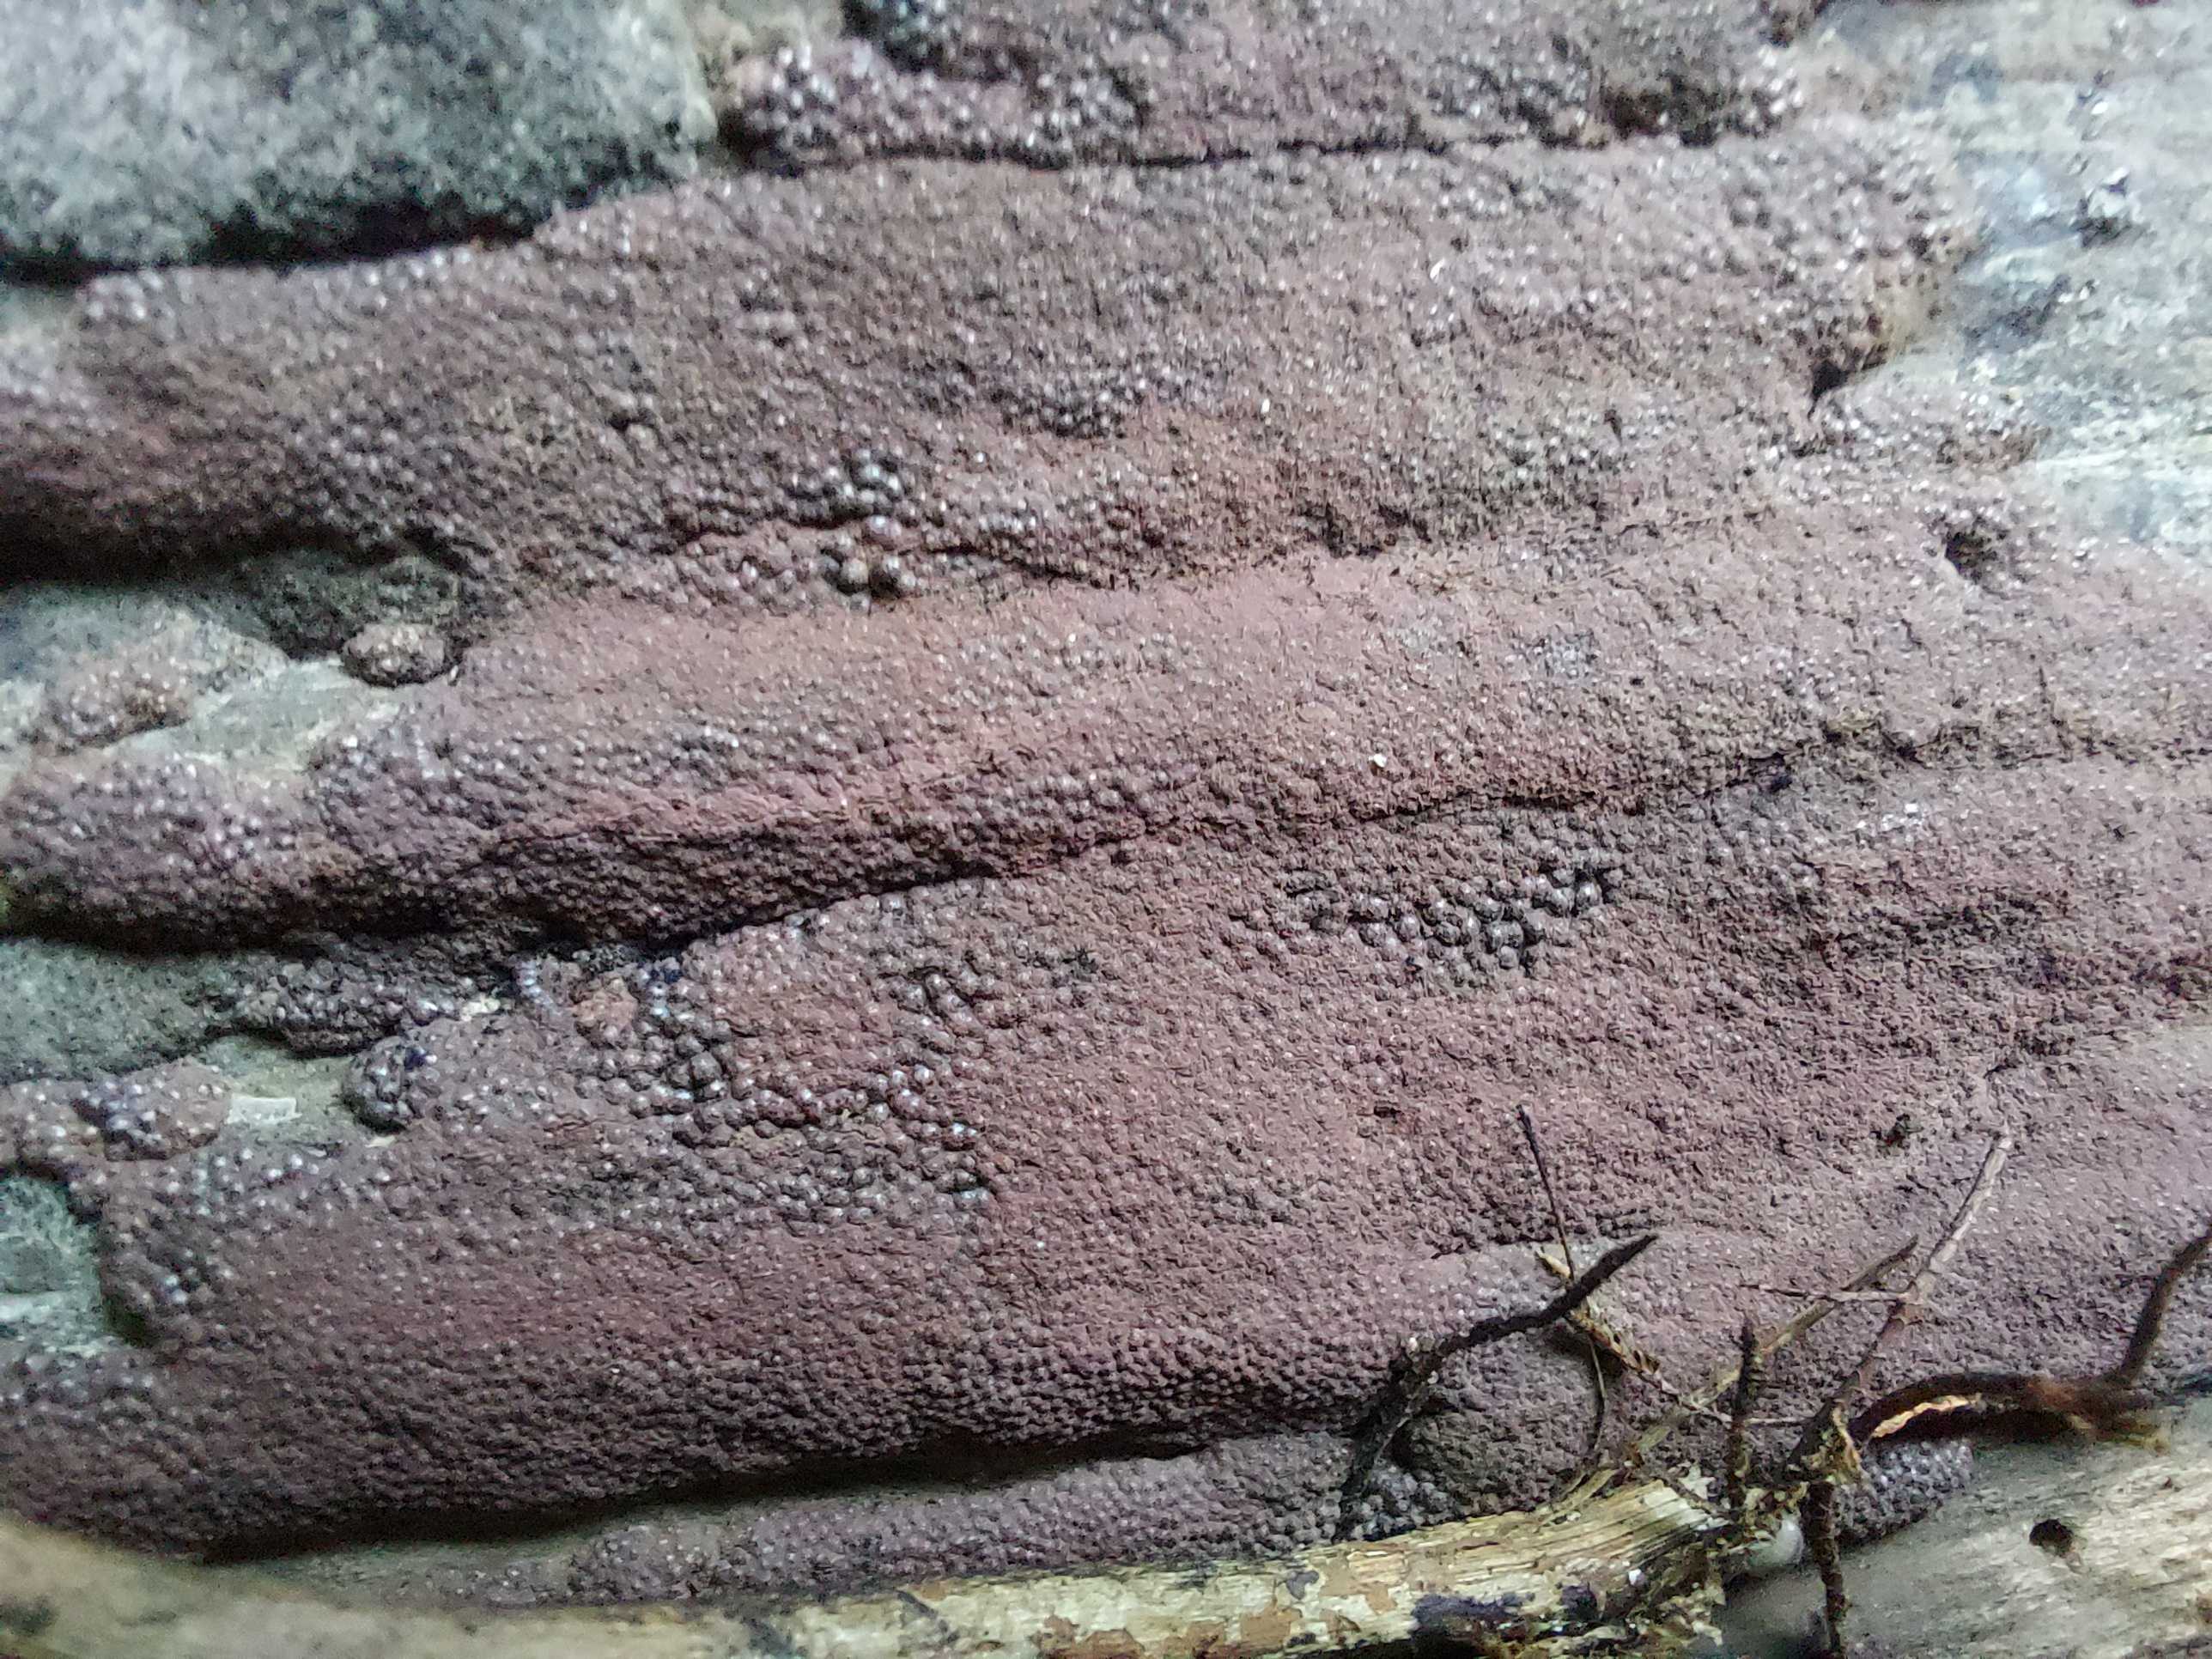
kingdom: Fungi
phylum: Ascomycota
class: Sordariomycetes
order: Xylariales
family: Hypoxylaceae
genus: Hypoxylon
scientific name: Hypoxylon macrocarpum
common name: skorpe-kulbær
